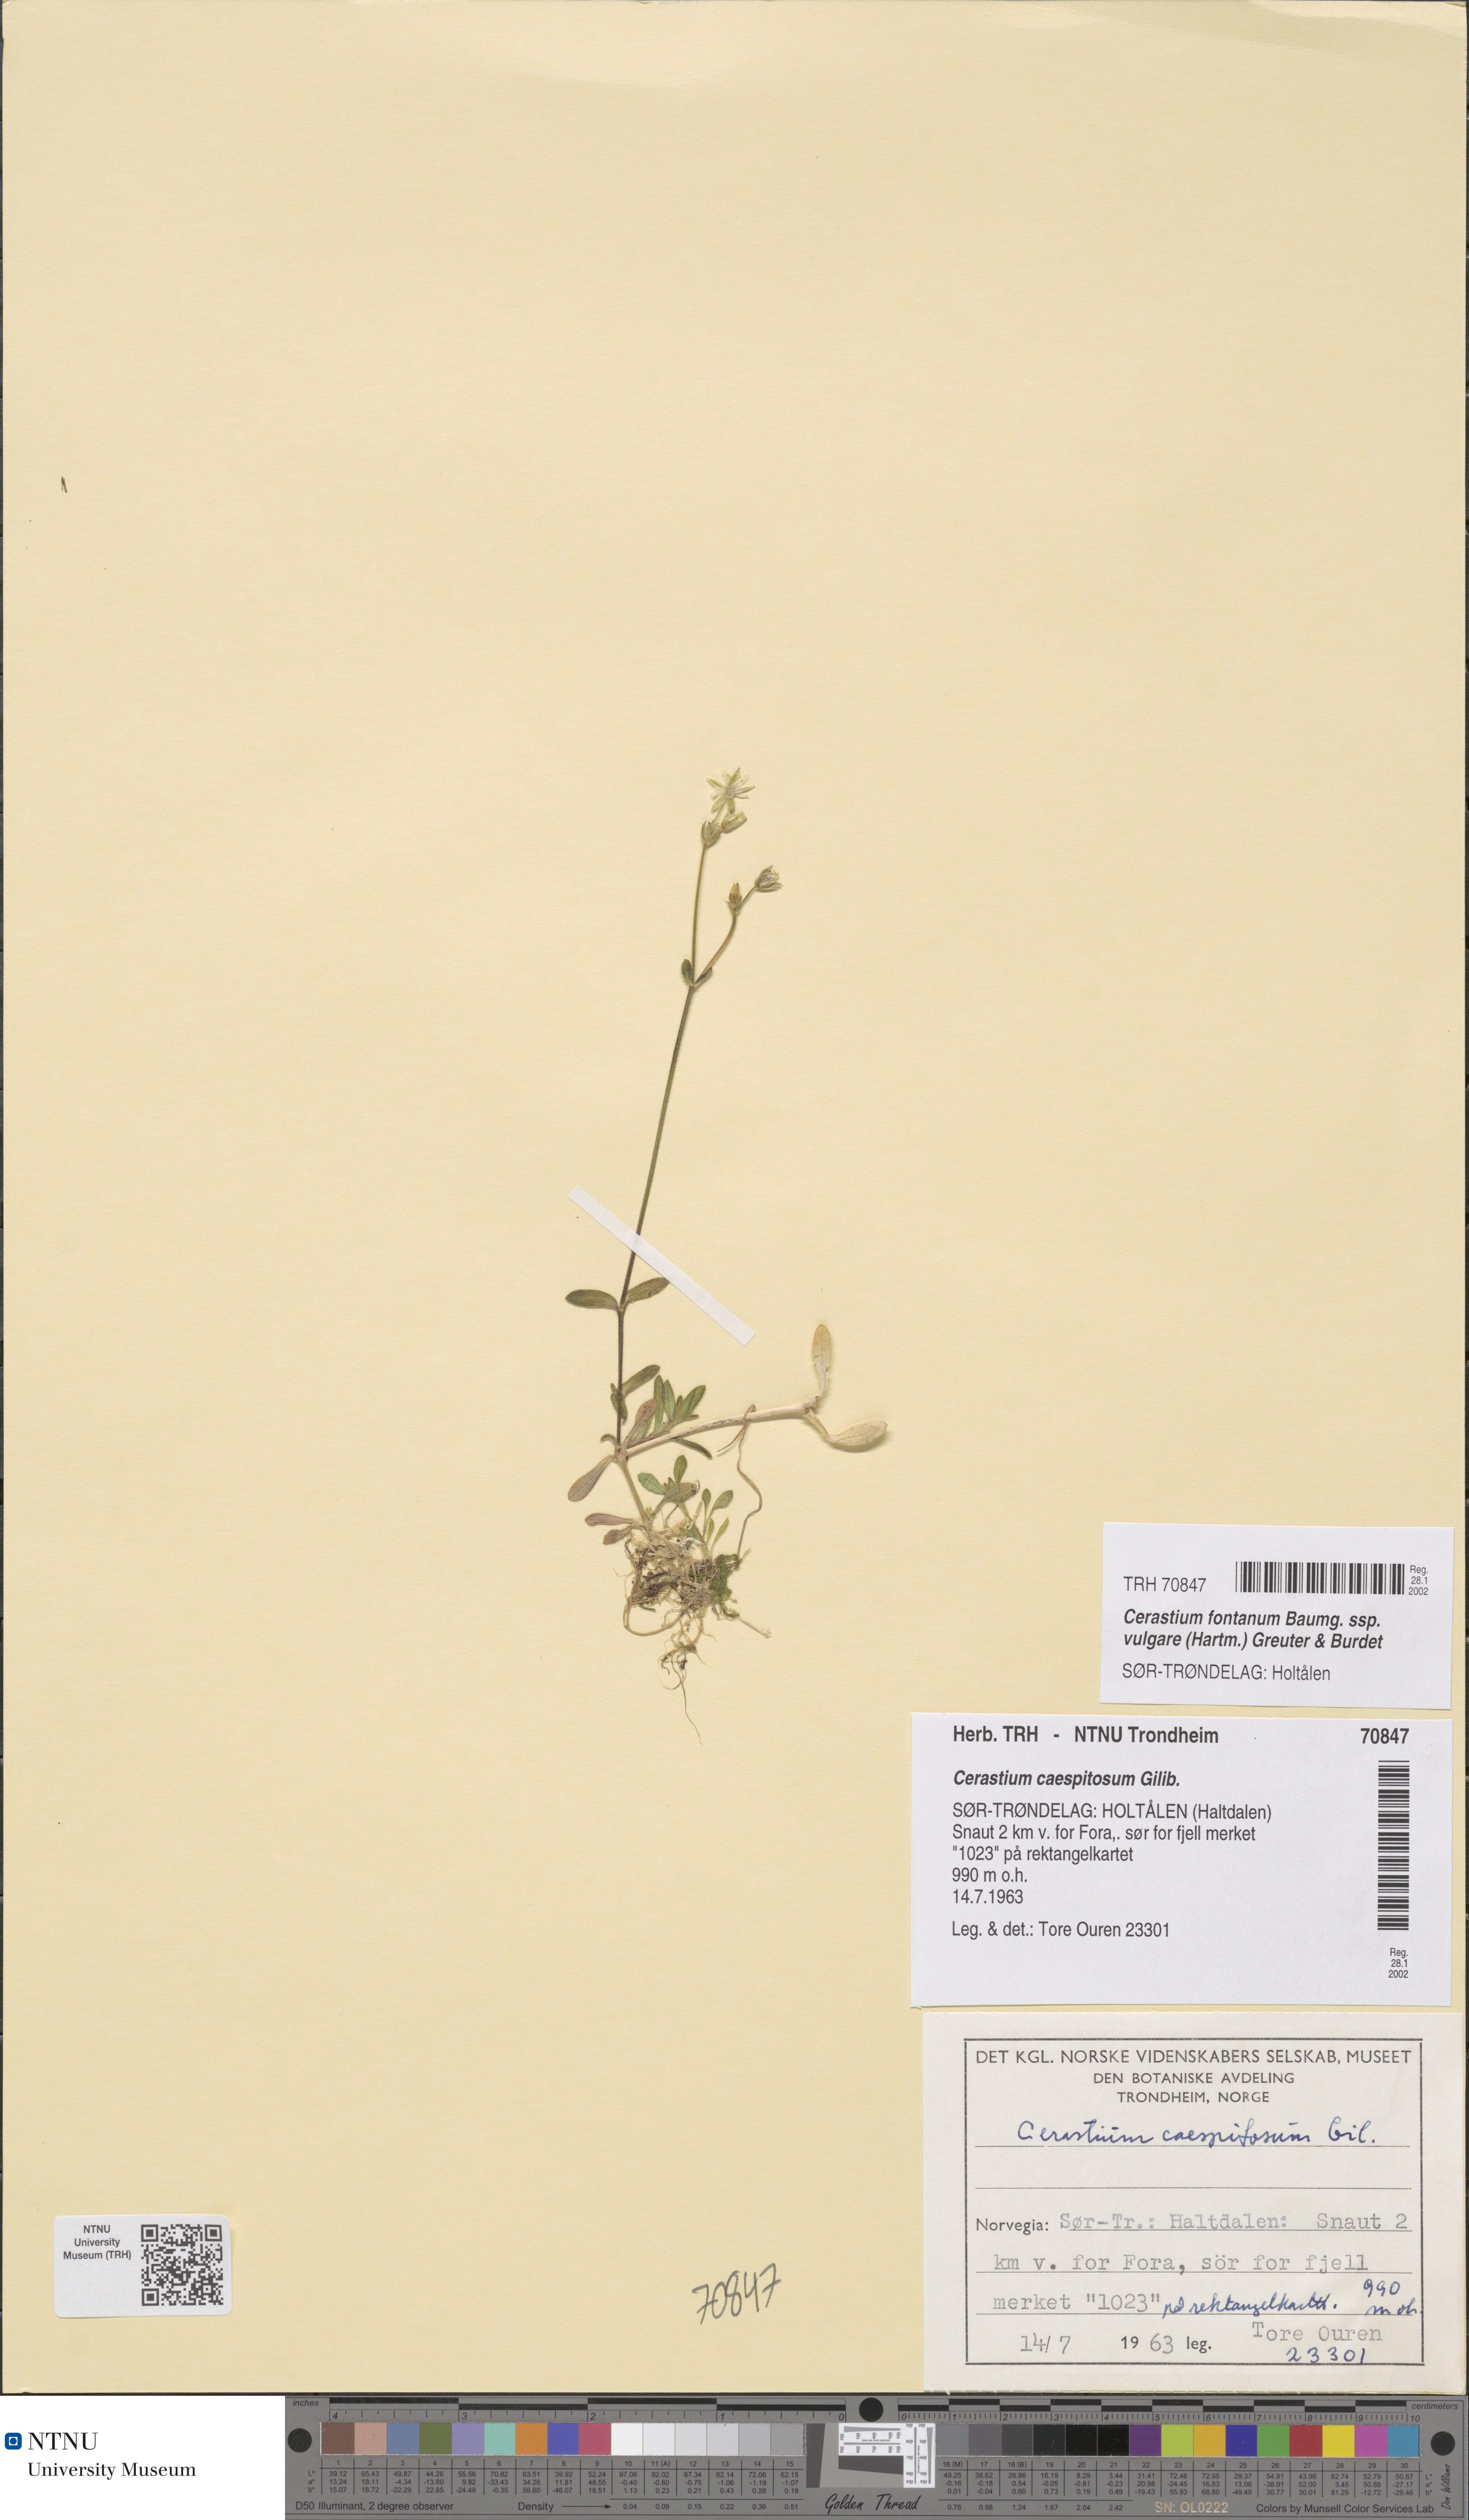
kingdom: Plantae
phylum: Tracheophyta
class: Magnoliopsida
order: Caryophyllales
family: Caryophyllaceae
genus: Cerastium
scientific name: Cerastium holosteoides
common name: Big chickweed
